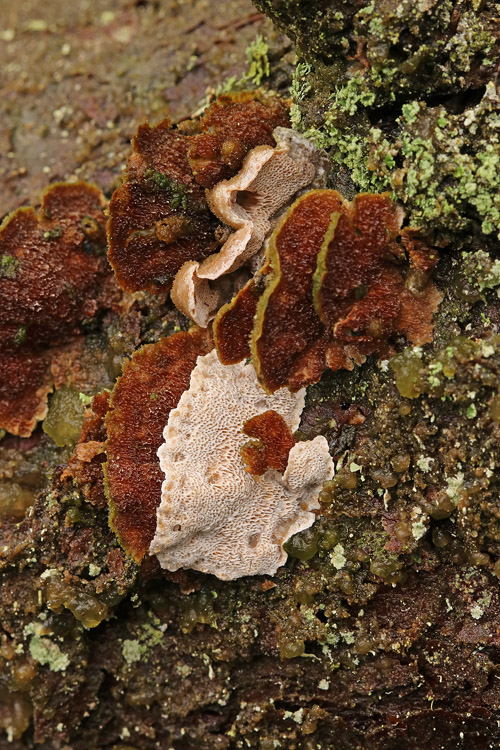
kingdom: Fungi
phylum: Basidiomycota
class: Agaricomycetes
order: Polyporales
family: Incrustoporiaceae
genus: Skeletocutis
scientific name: Skeletocutis carneogrisea
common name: rødgrå krystalporesvamp
